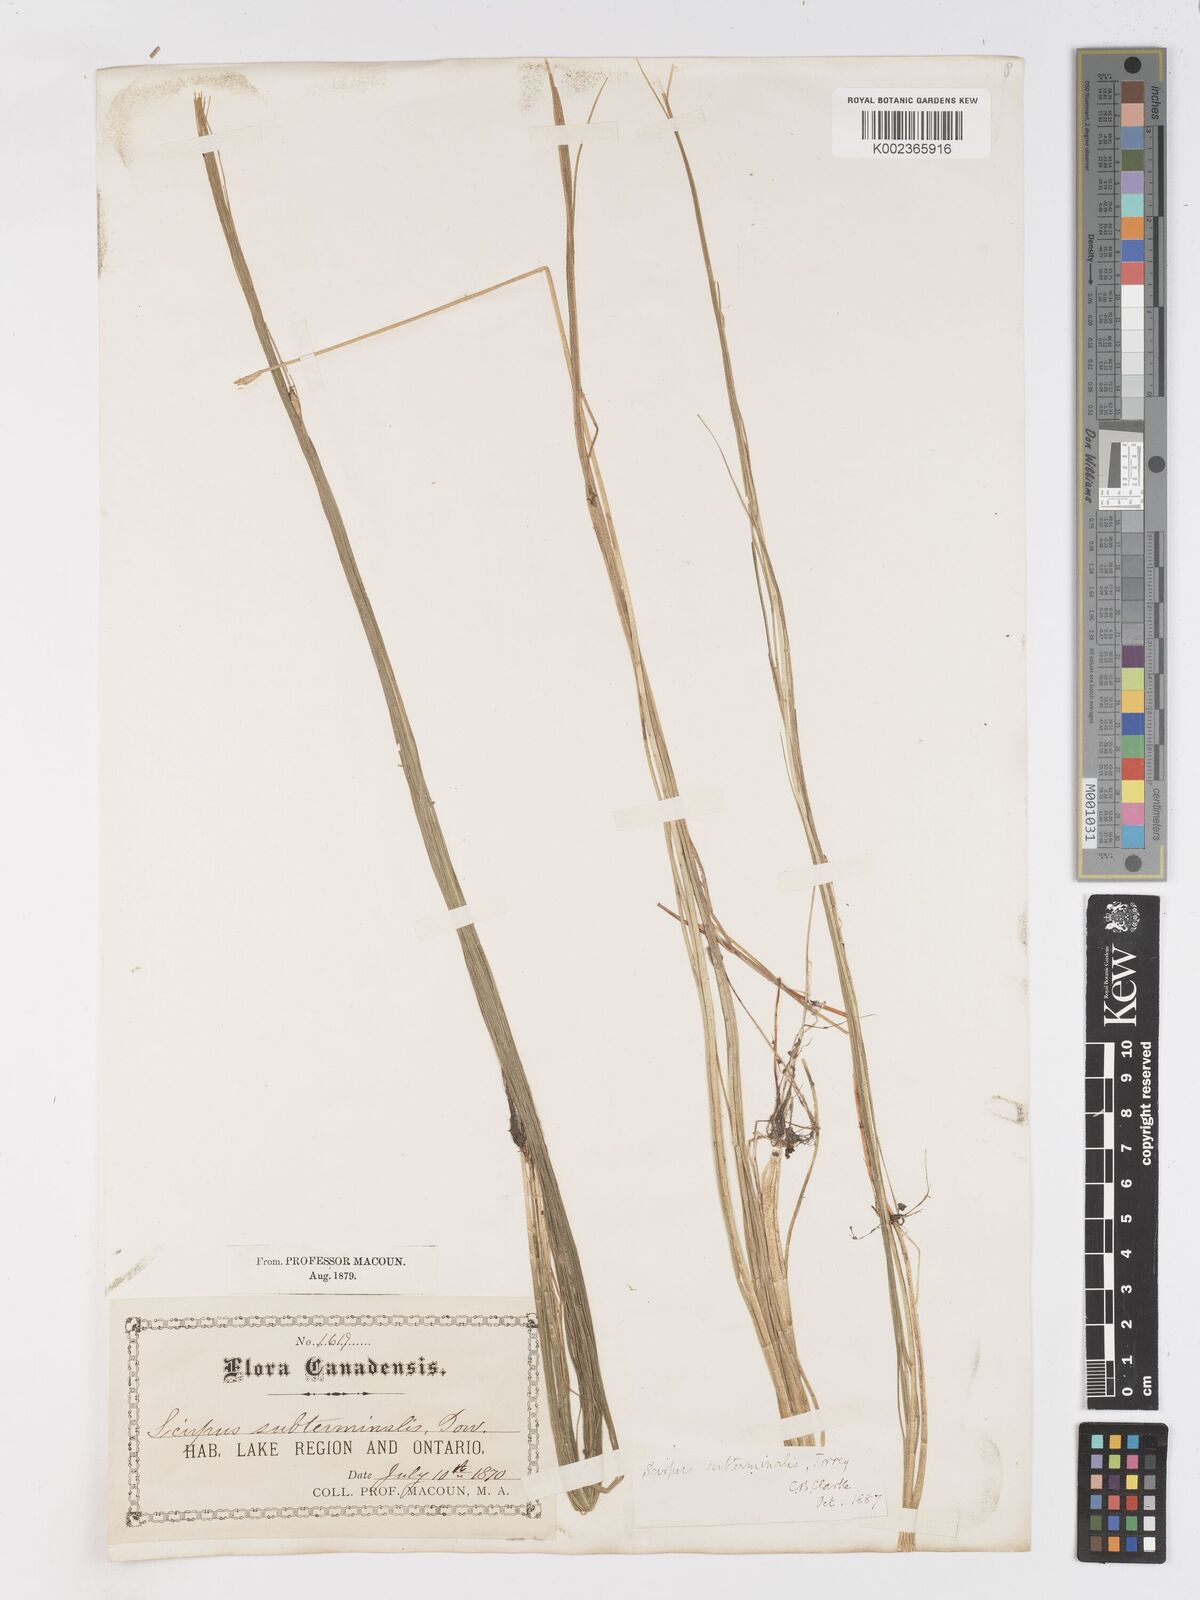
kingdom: Plantae
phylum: Tracheophyta
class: Liliopsida
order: Poales
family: Cyperaceae
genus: Schoenoplectus
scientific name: Schoenoplectus subterminalis
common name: Swaying bulrush
